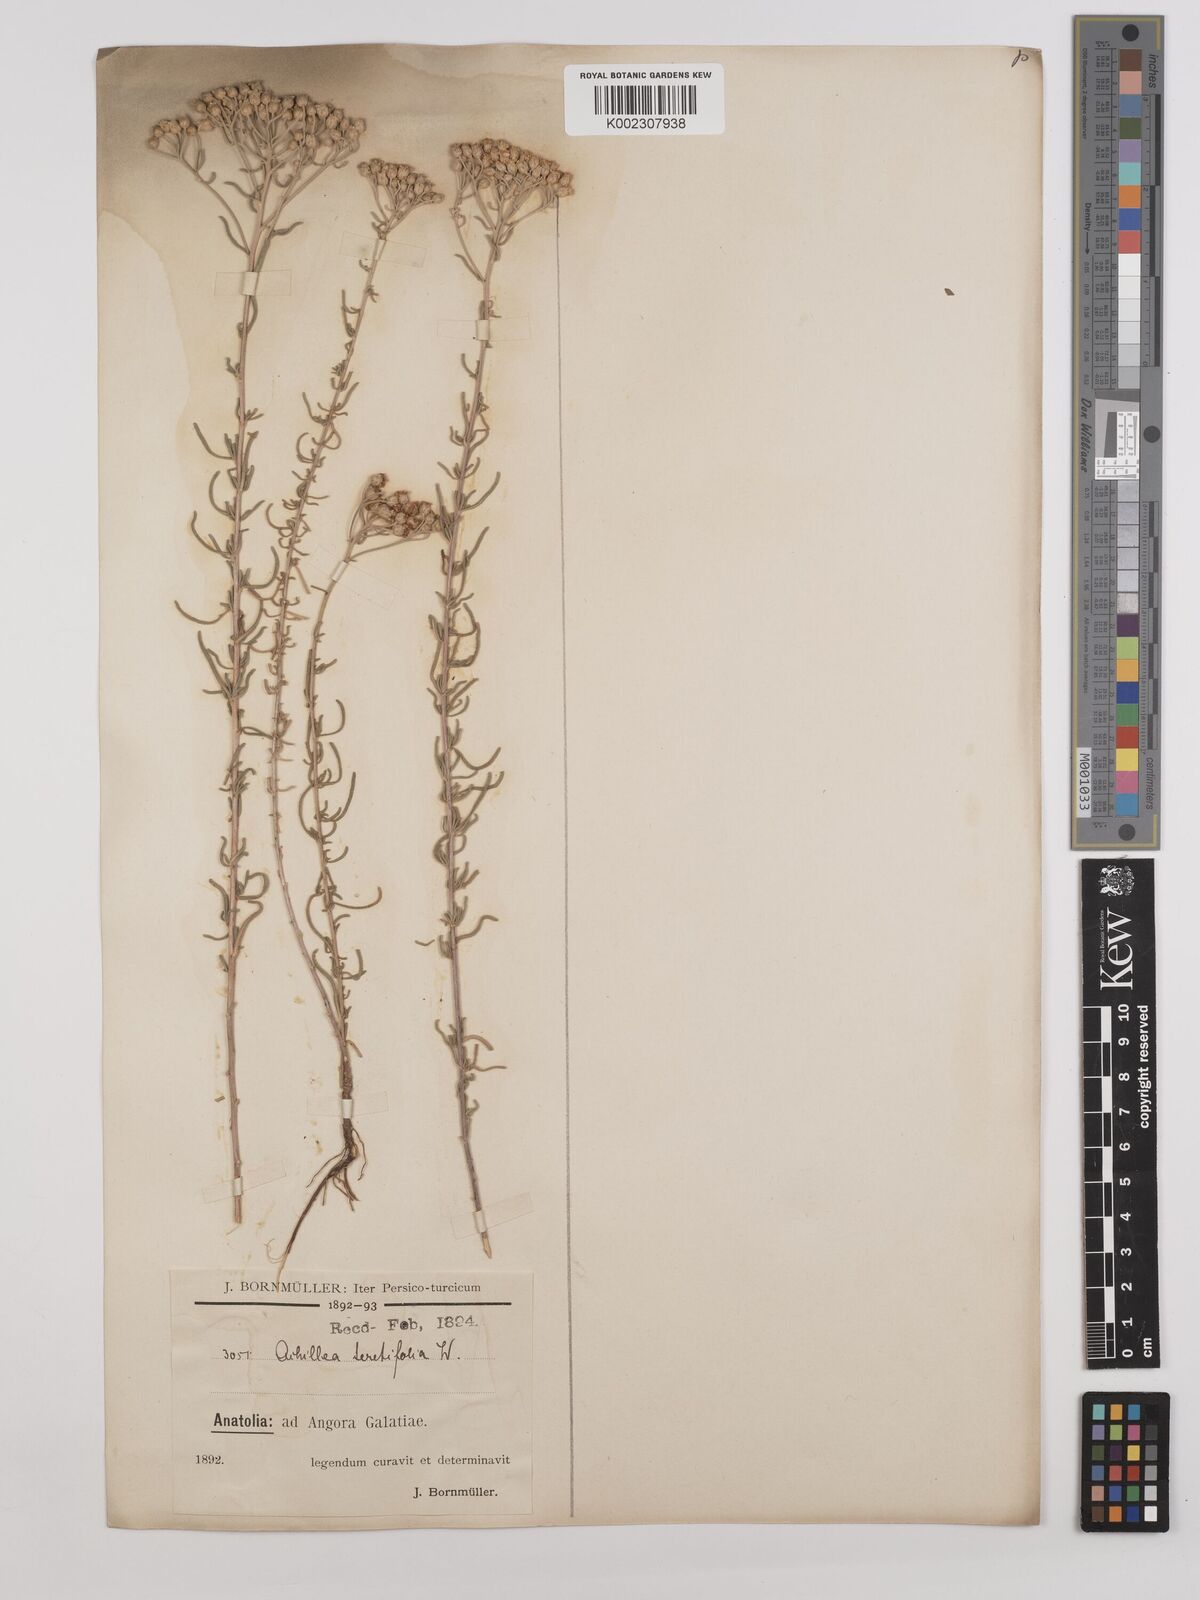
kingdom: Plantae
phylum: Tracheophyta
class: Magnoliopsida
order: Asterales
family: Asteraceae
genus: Achillea
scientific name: Achillea wilhelmsii
